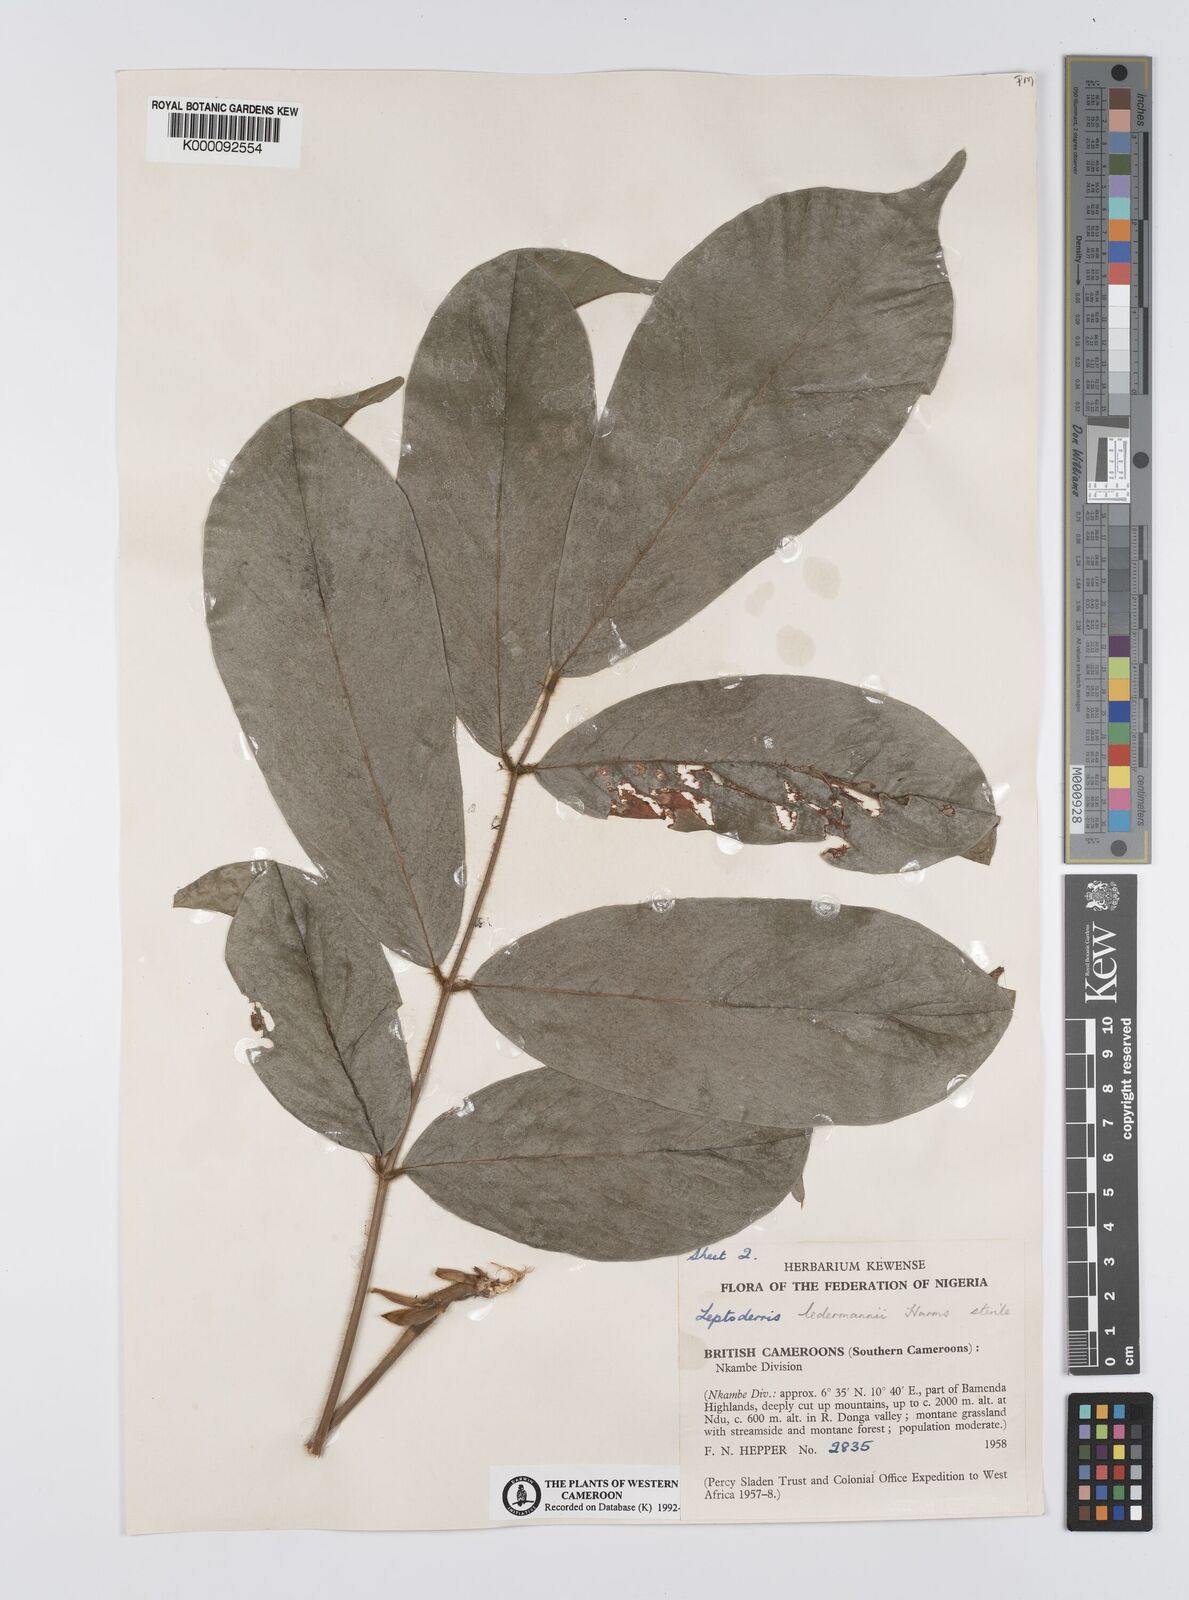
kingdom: Plantae
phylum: Tracheophyta
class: Magnoliopsida
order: Fabales
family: Fabaceae
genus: Leptoderris
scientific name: Leptoderris ledermannii
